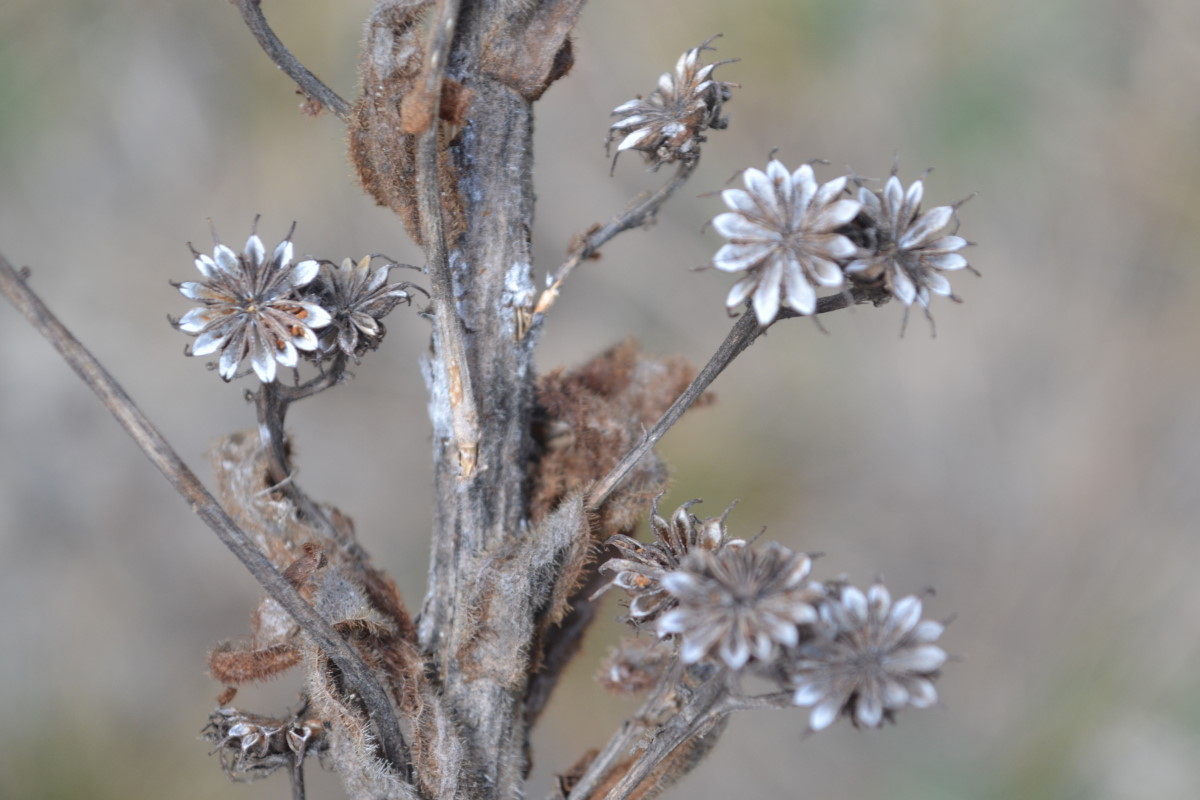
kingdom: Plantae
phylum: Tracheophyta
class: Magnoliopsida
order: Saxifragales
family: Crassulaceae
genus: Sempervivum
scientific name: Sempervivum ruthenicum
